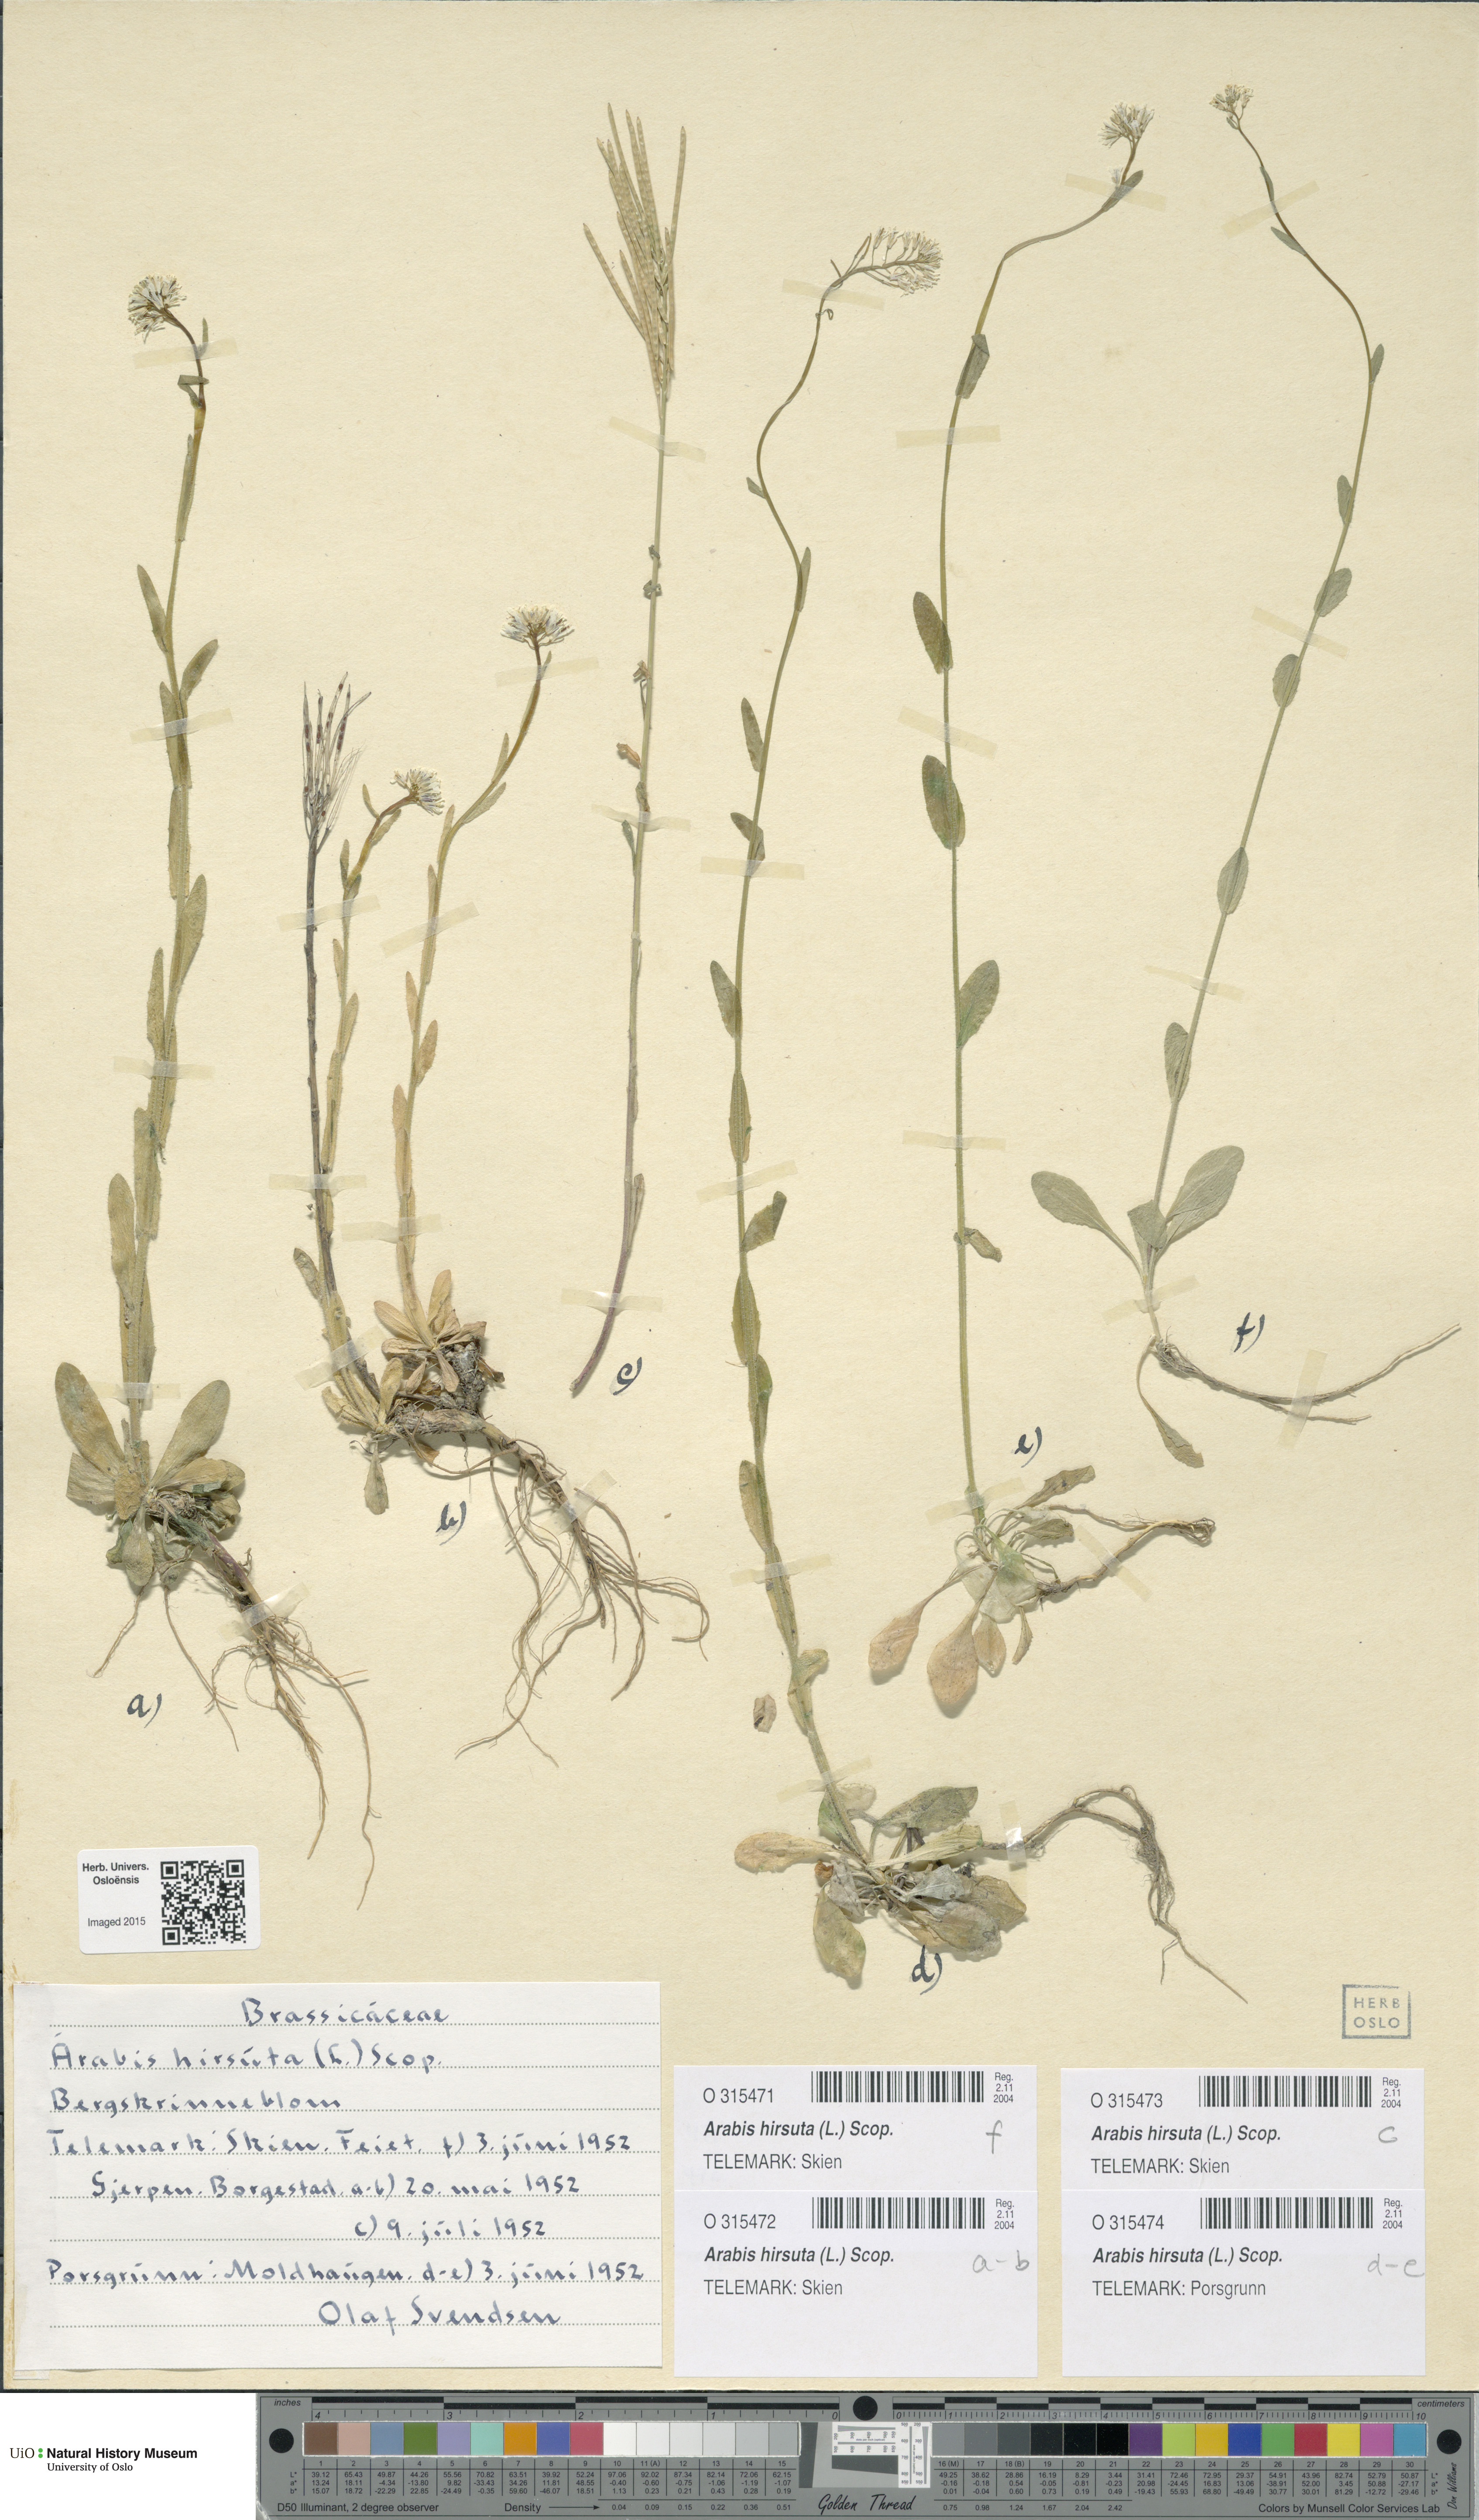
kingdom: Plantae
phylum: Tracheophyta
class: Magnoliopsida
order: Brassicales
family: Brassicaceae
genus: Arabis
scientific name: Arabis hirsuta
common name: Hairy rock-cress
